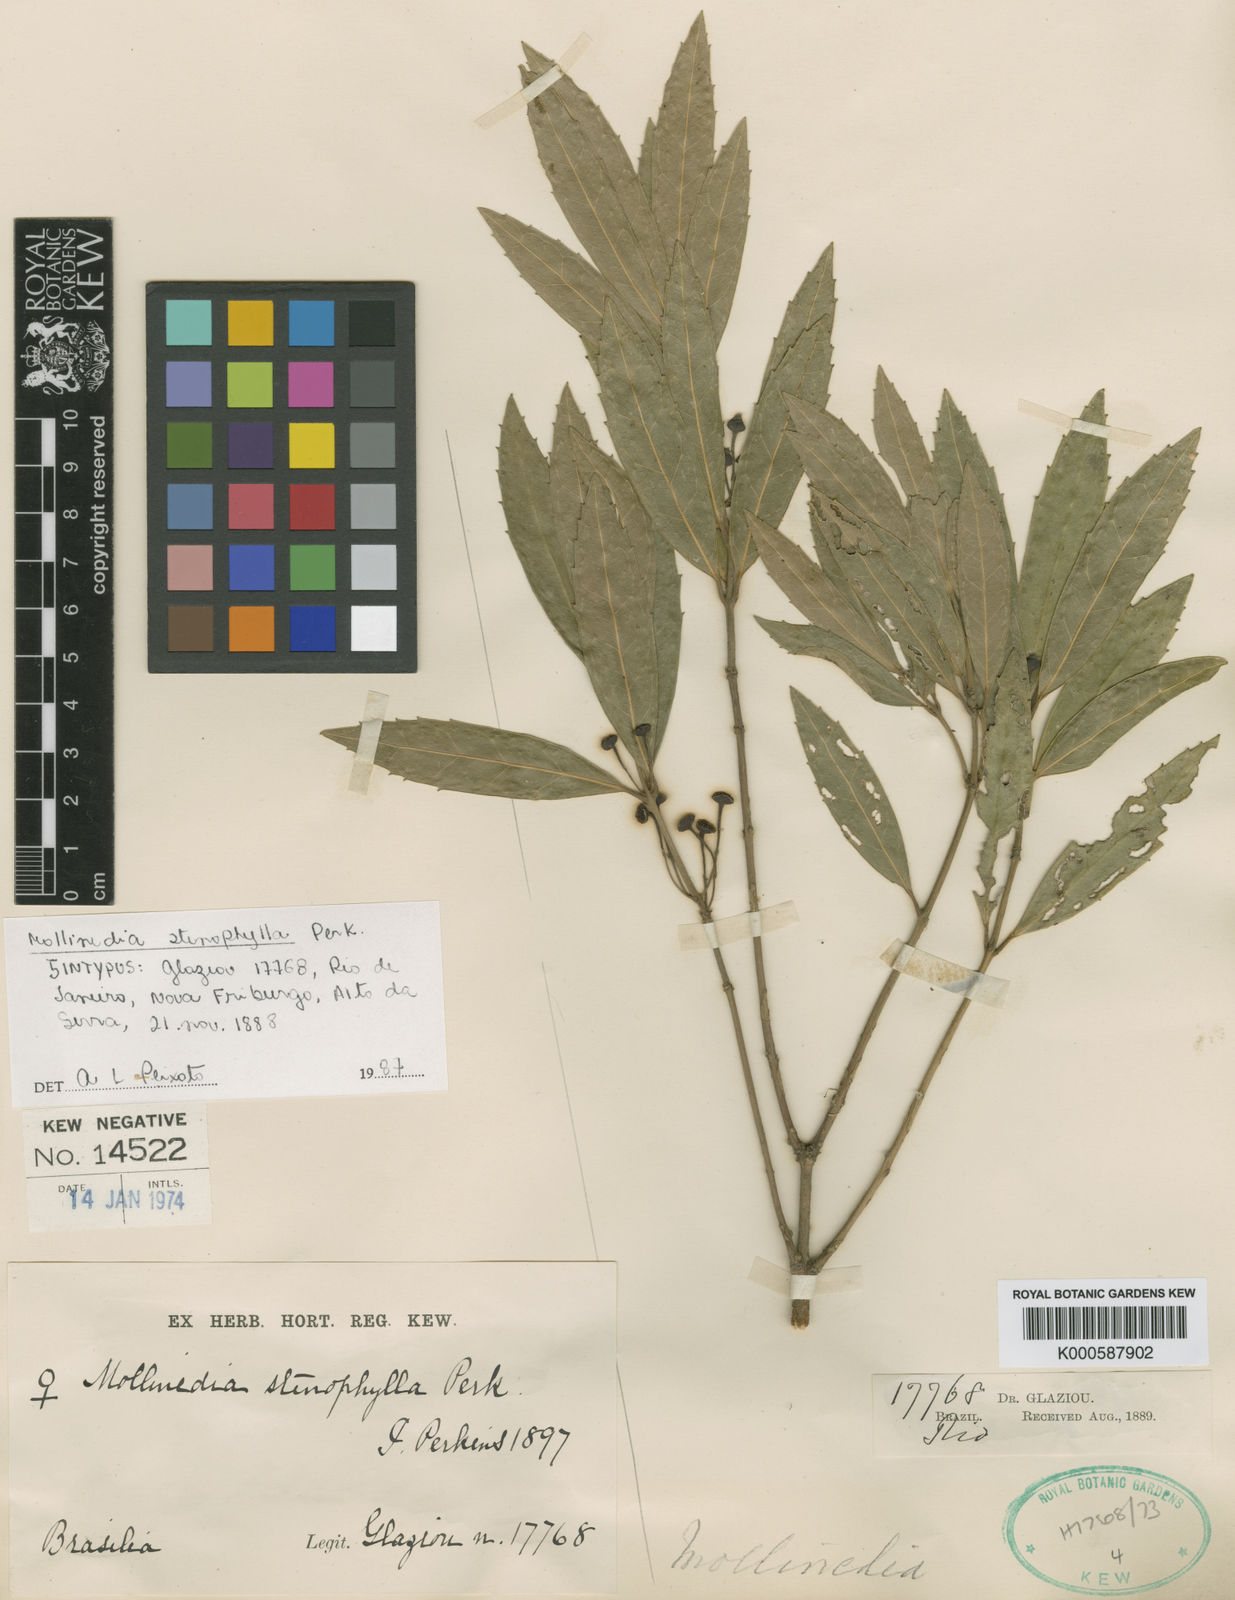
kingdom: Plantae
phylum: Tracheophyta
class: Magnoliopsida
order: Laurales
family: Monimiaceae
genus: Mollinedia
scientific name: Mollinedia stenophylla
